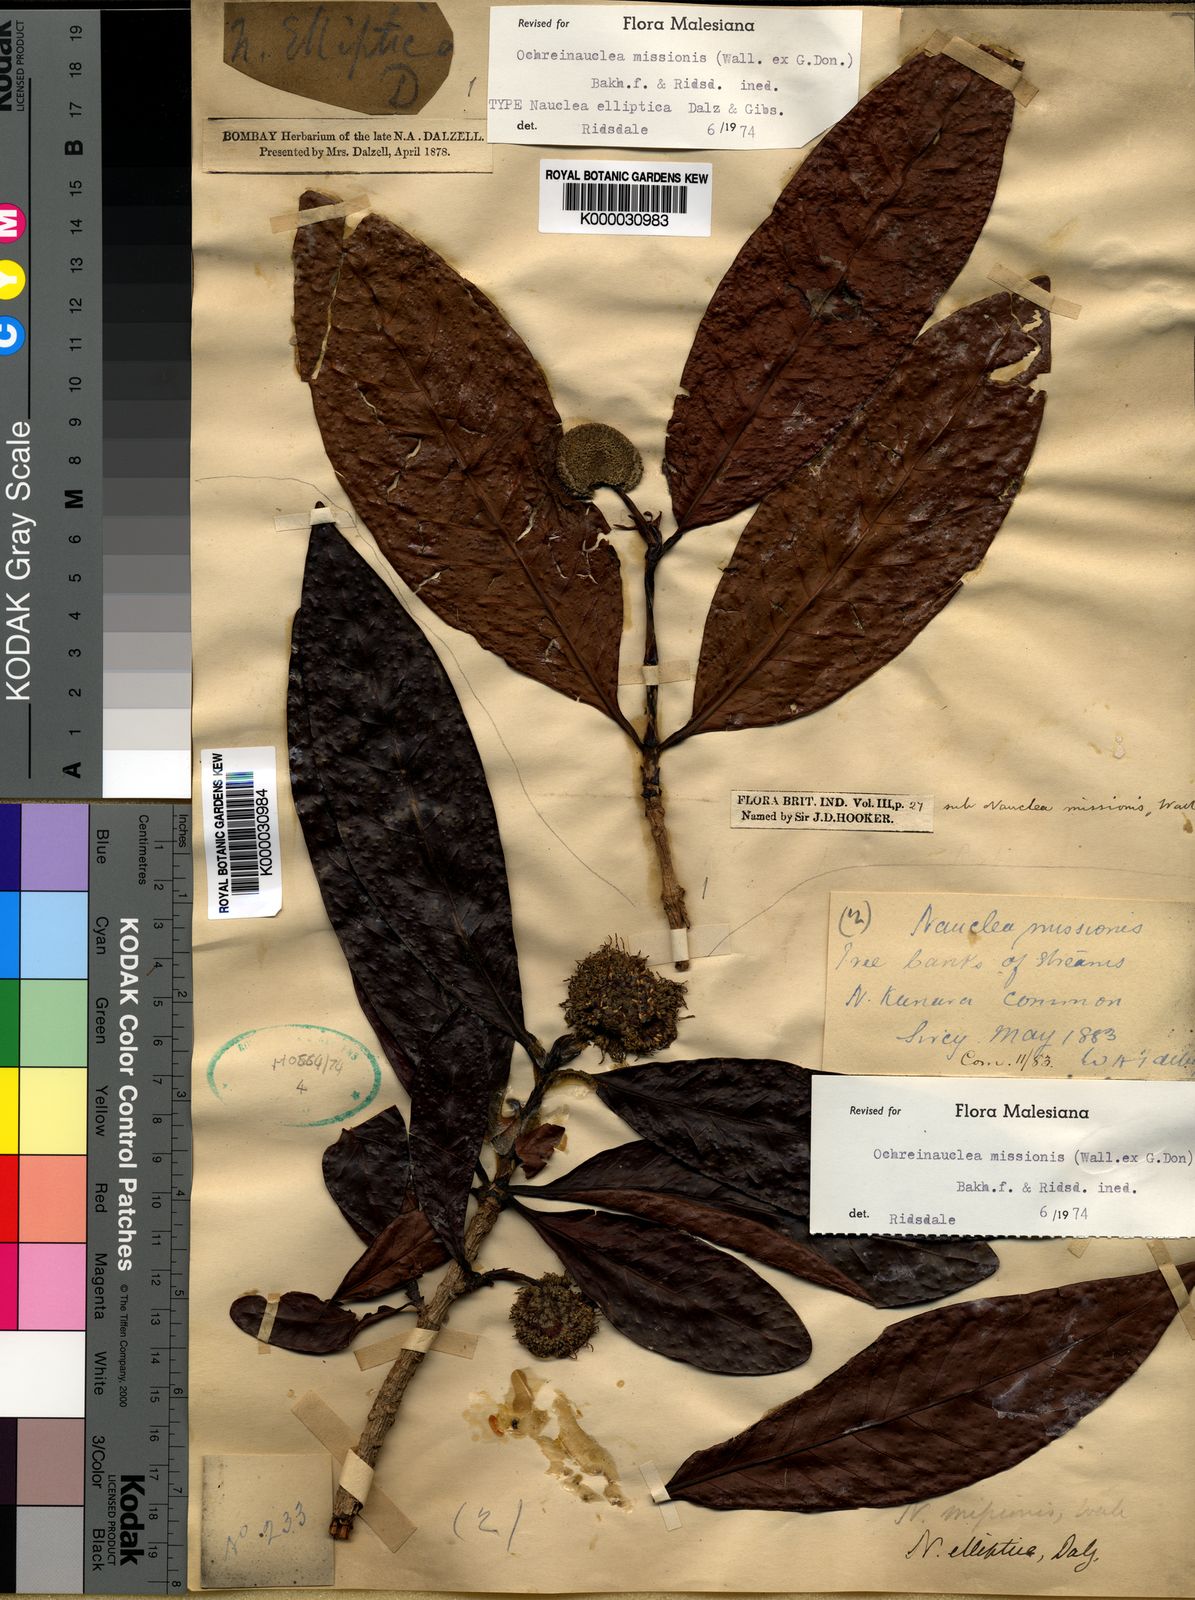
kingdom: Plantae
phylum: Tracheophyta
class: Magnoliopsida
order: Gentianales
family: Rubiaceae
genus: Ochreinauclea
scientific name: Ochreinauclea missionis
